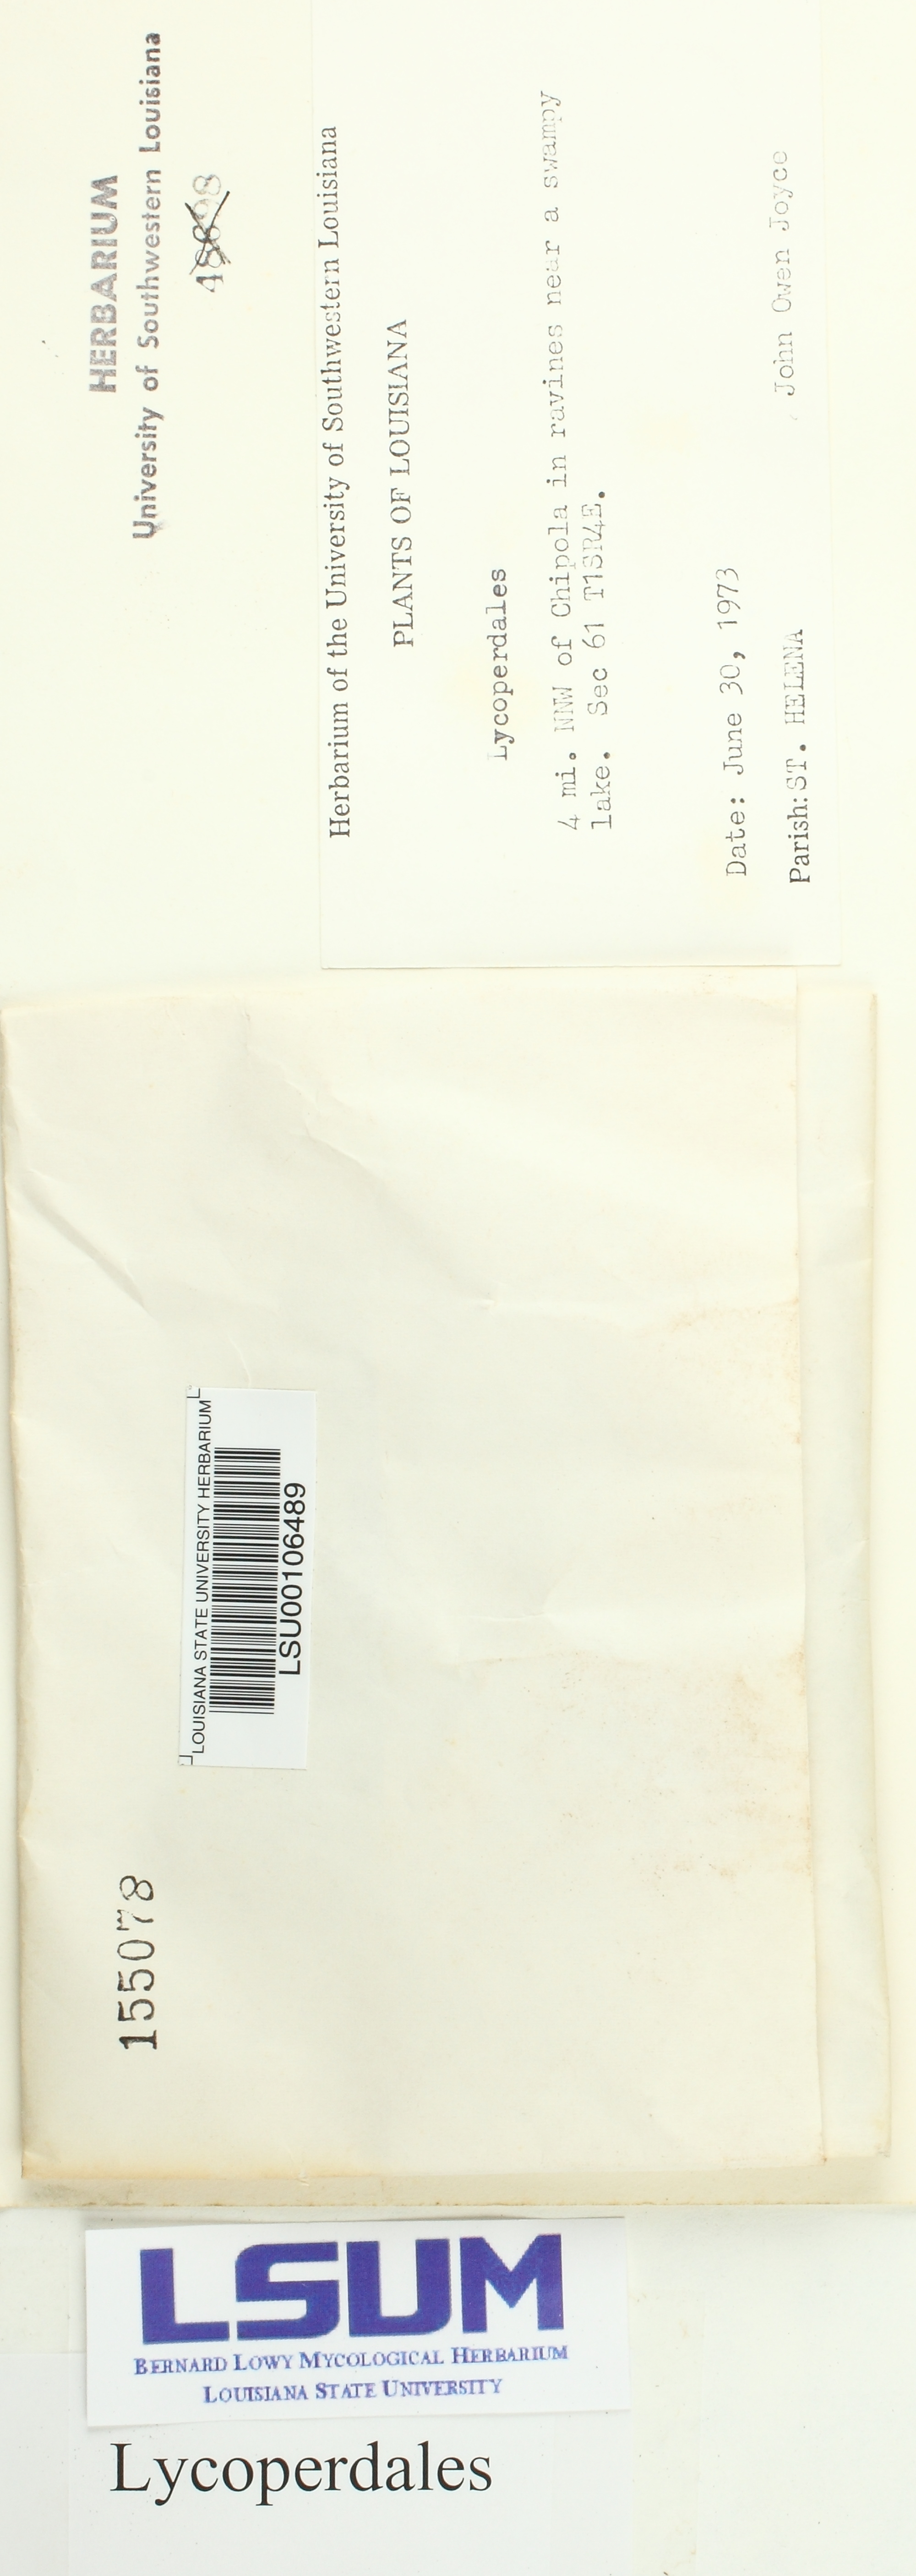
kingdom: Fungi
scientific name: Fungi
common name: Fungi
